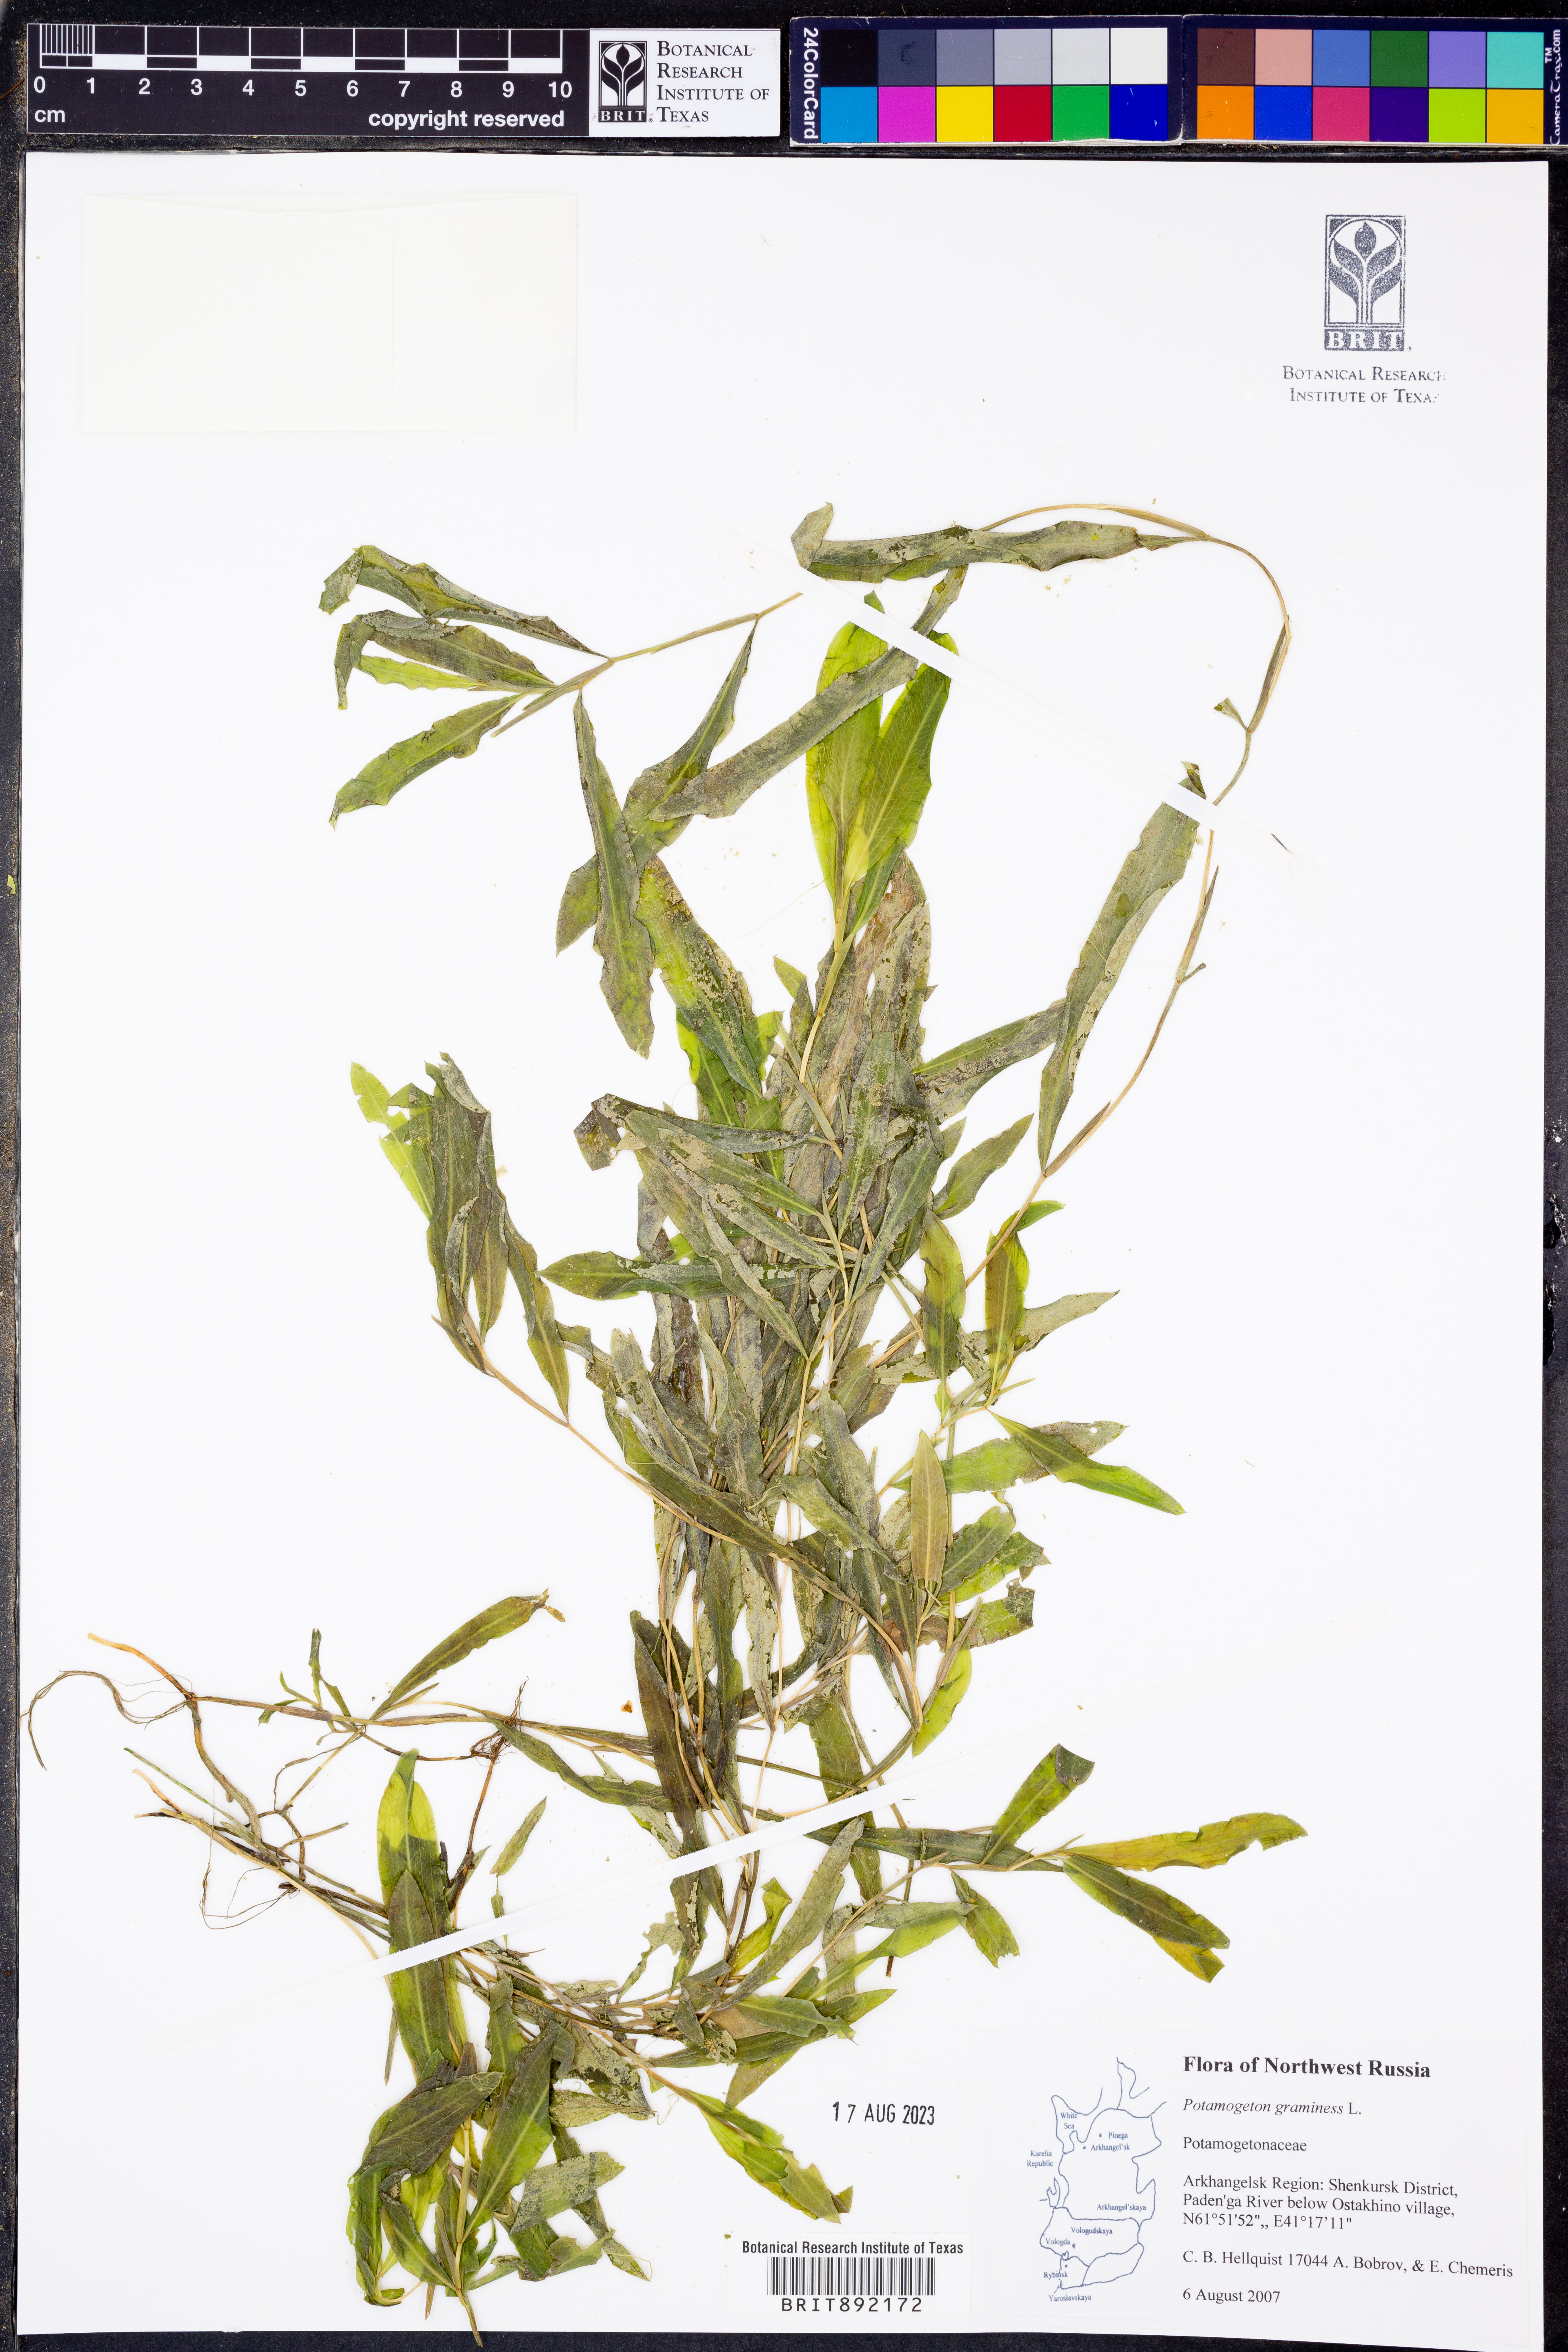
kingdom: Plantae
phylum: Tracheophyta
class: Liliopsida
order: Alismatales
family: Potamogetonaceae
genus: Potamogeton
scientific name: Potamogeton gramineus
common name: Various-leaved pondweed
